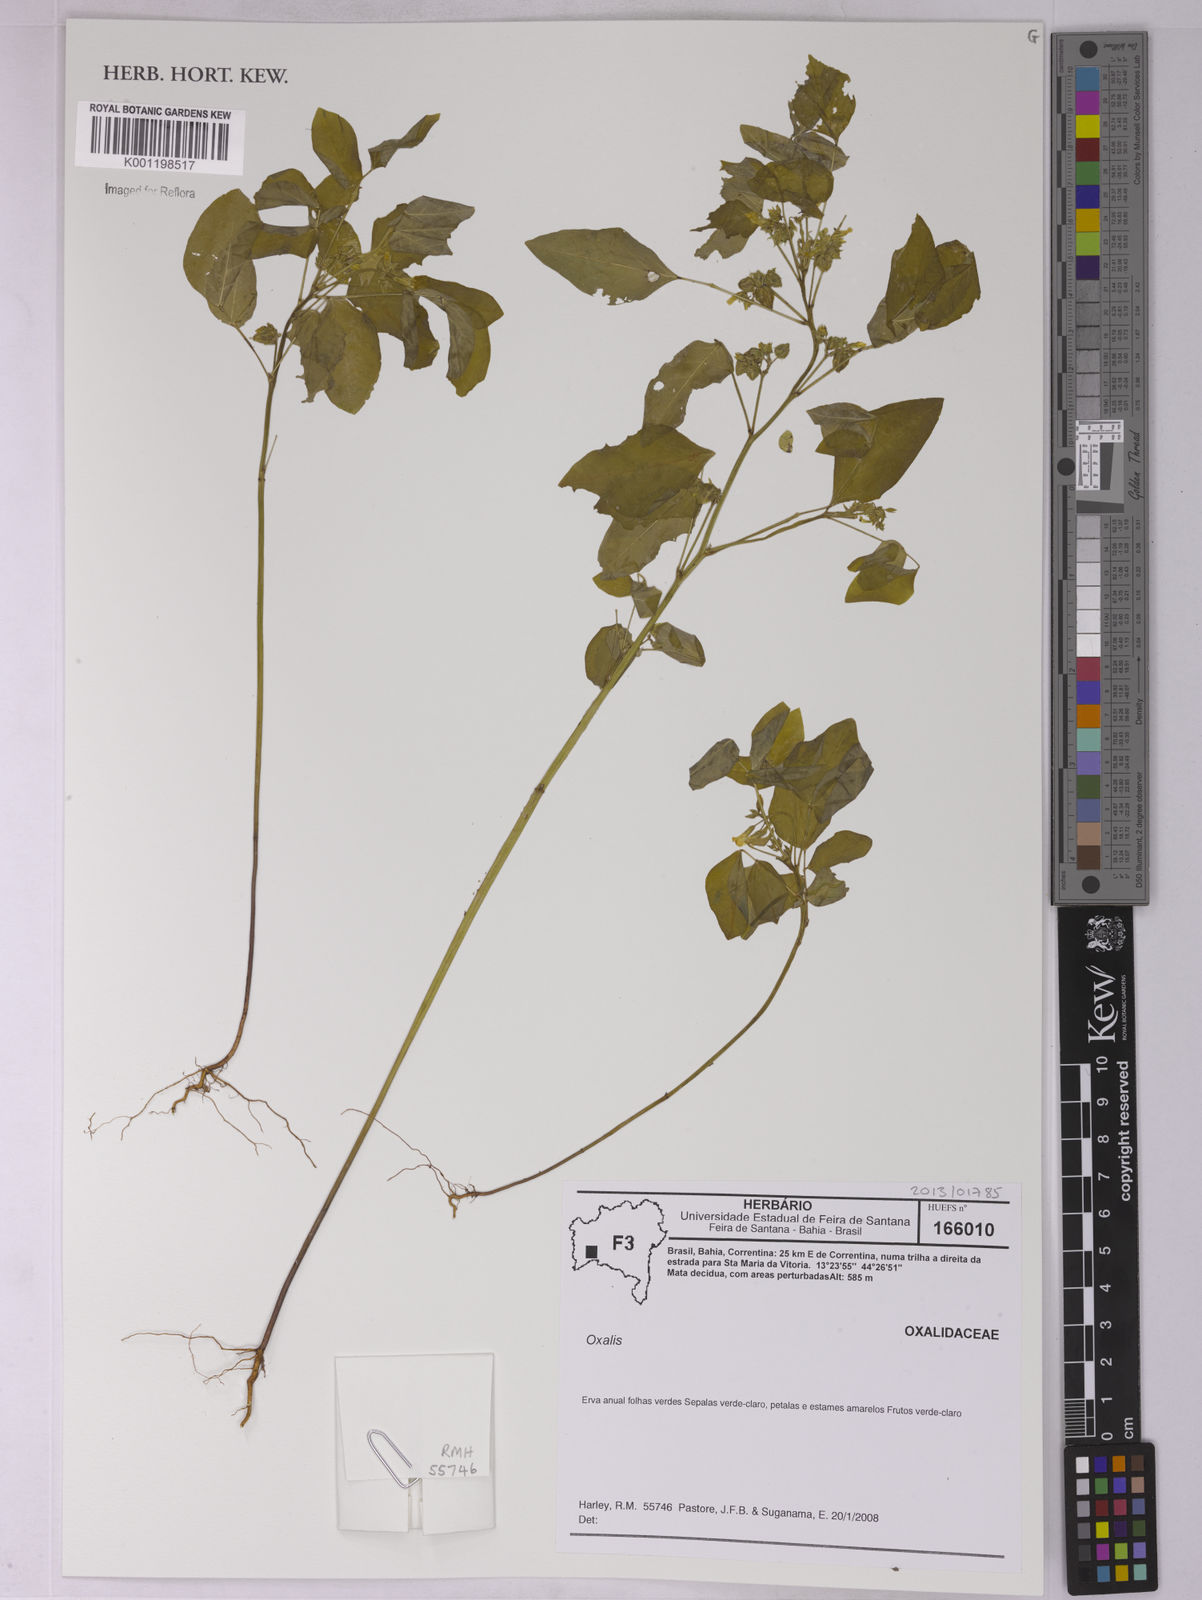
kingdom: Plantae
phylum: Tracheophyta
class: Magnoliopsida
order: Oxalidales
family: Oxalidaceae
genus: Oxalis
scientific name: Oxalis
